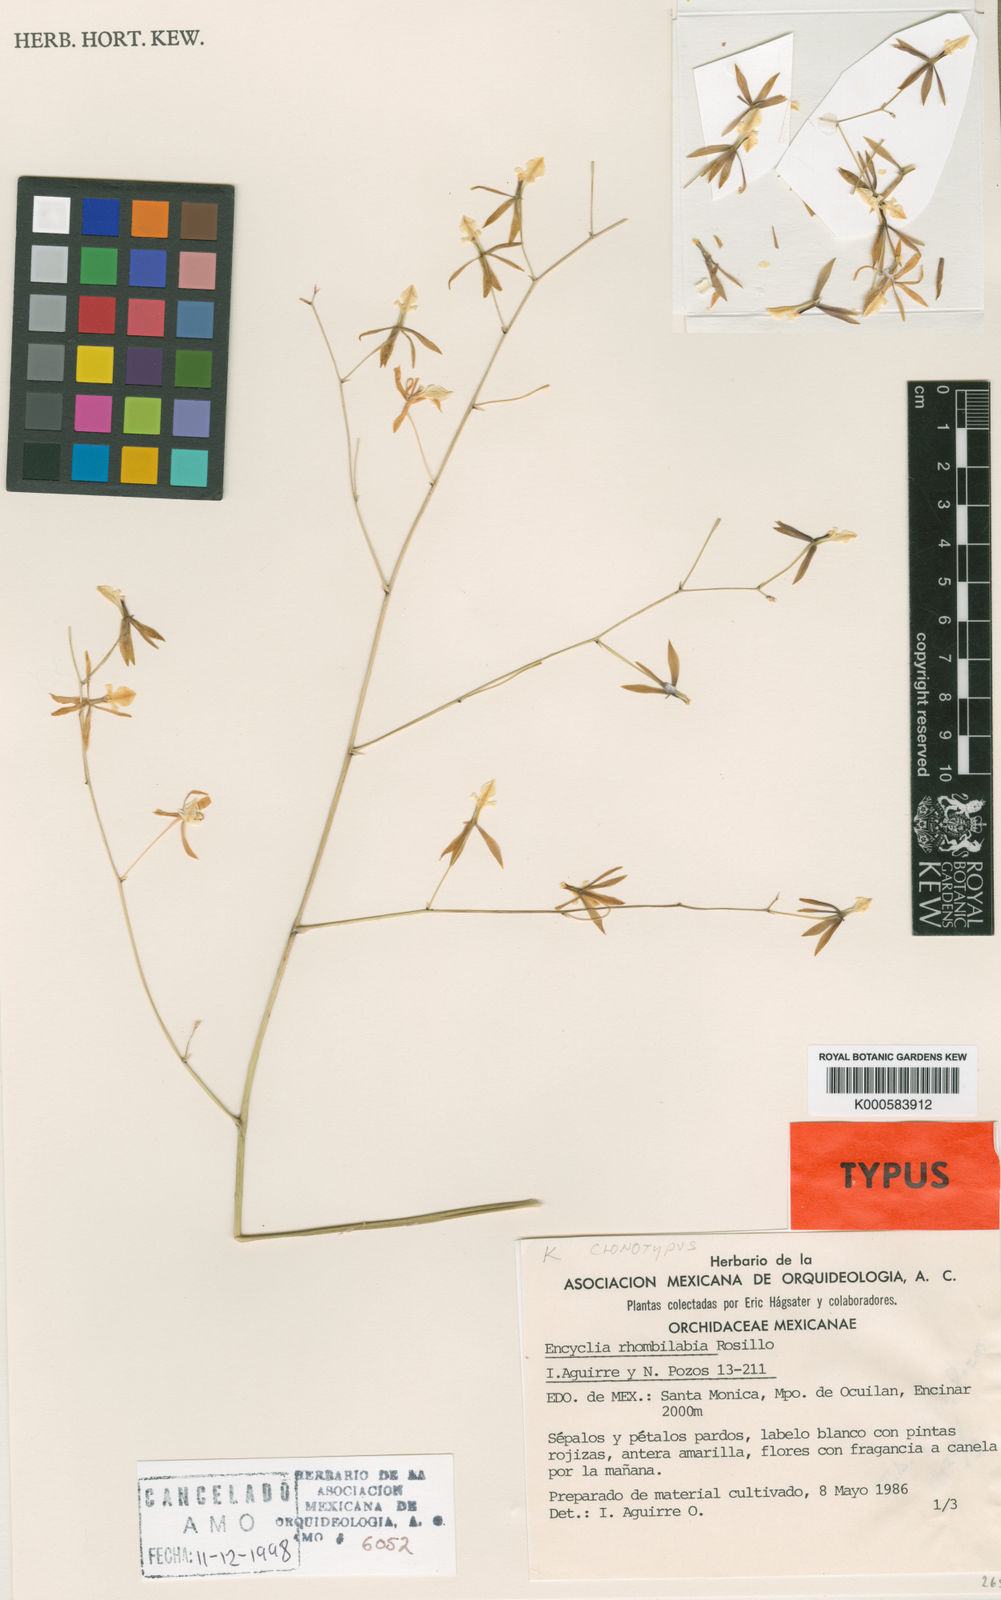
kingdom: Plantae
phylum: Tracheophyta
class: Liliopsida
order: Asparagales
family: Orchidaceae
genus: Prosthechea
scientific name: Prosthechea punctulata
